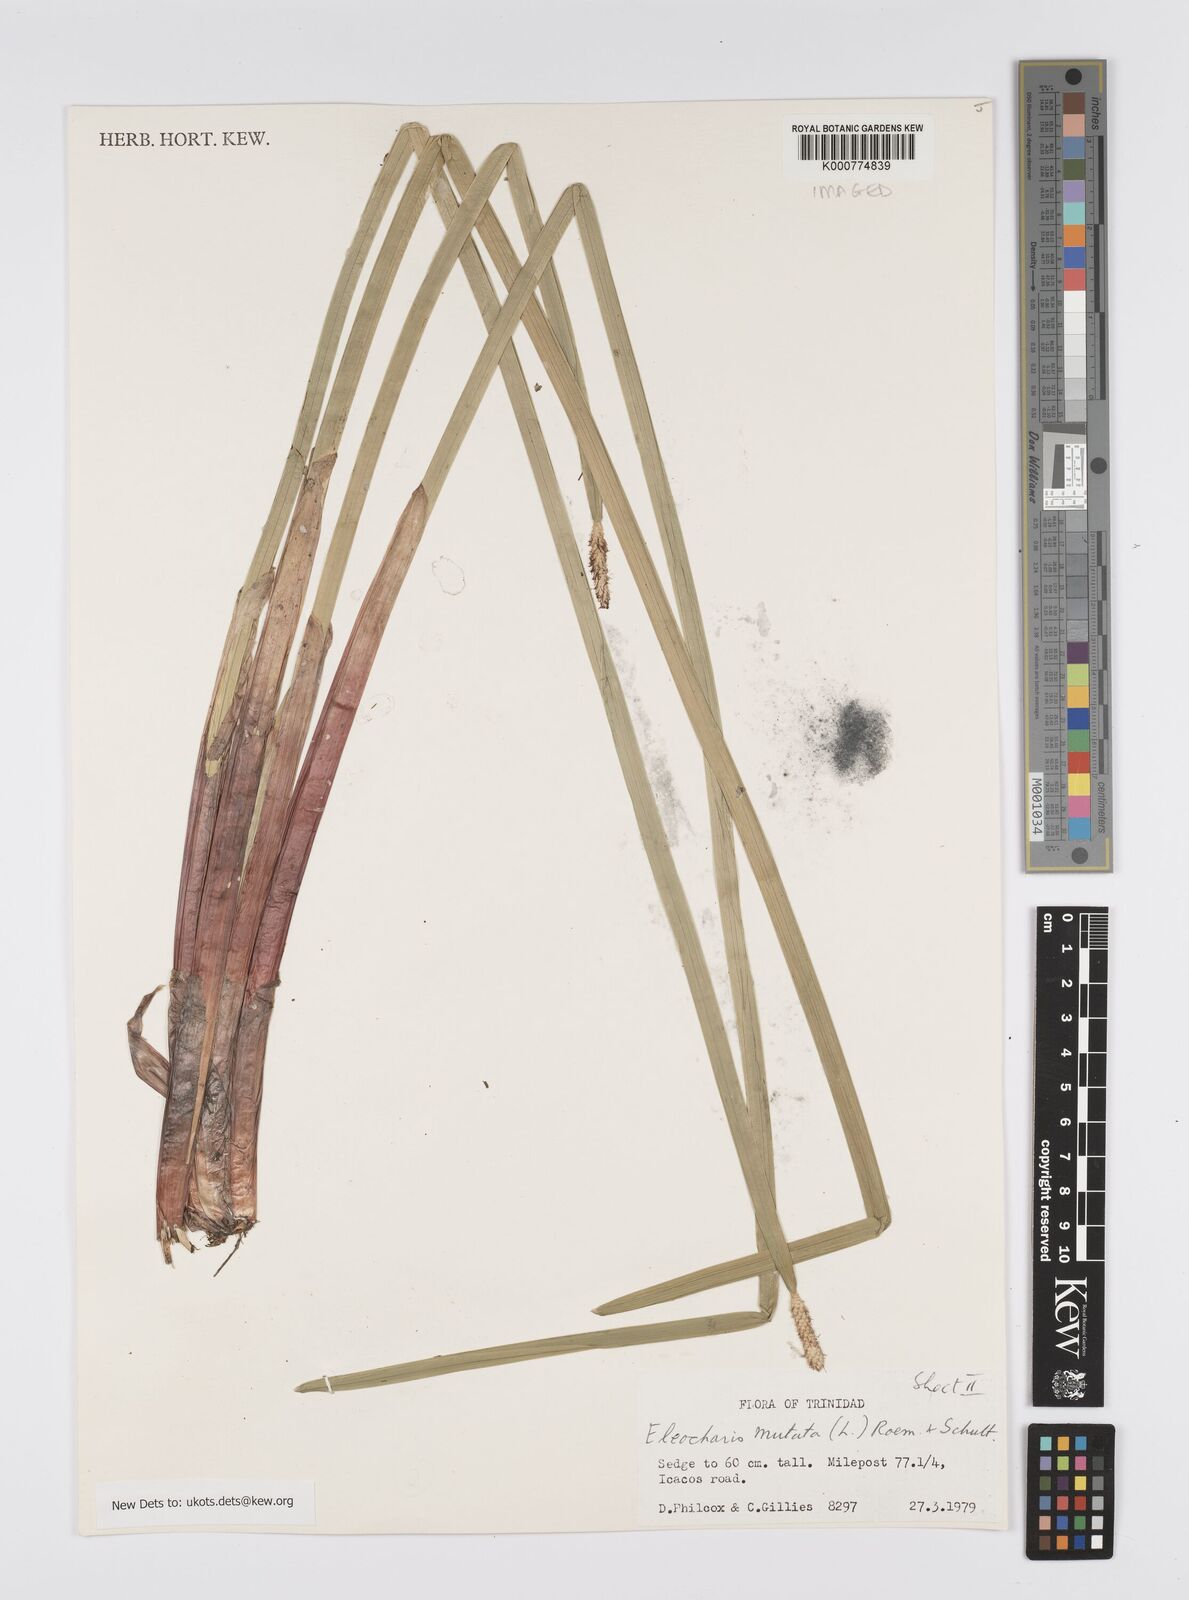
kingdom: Plantae
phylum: Tracheophyta
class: Liliopsida
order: Poales
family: Cyperaceae
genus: Eleocharis
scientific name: Eleocharis mutata
